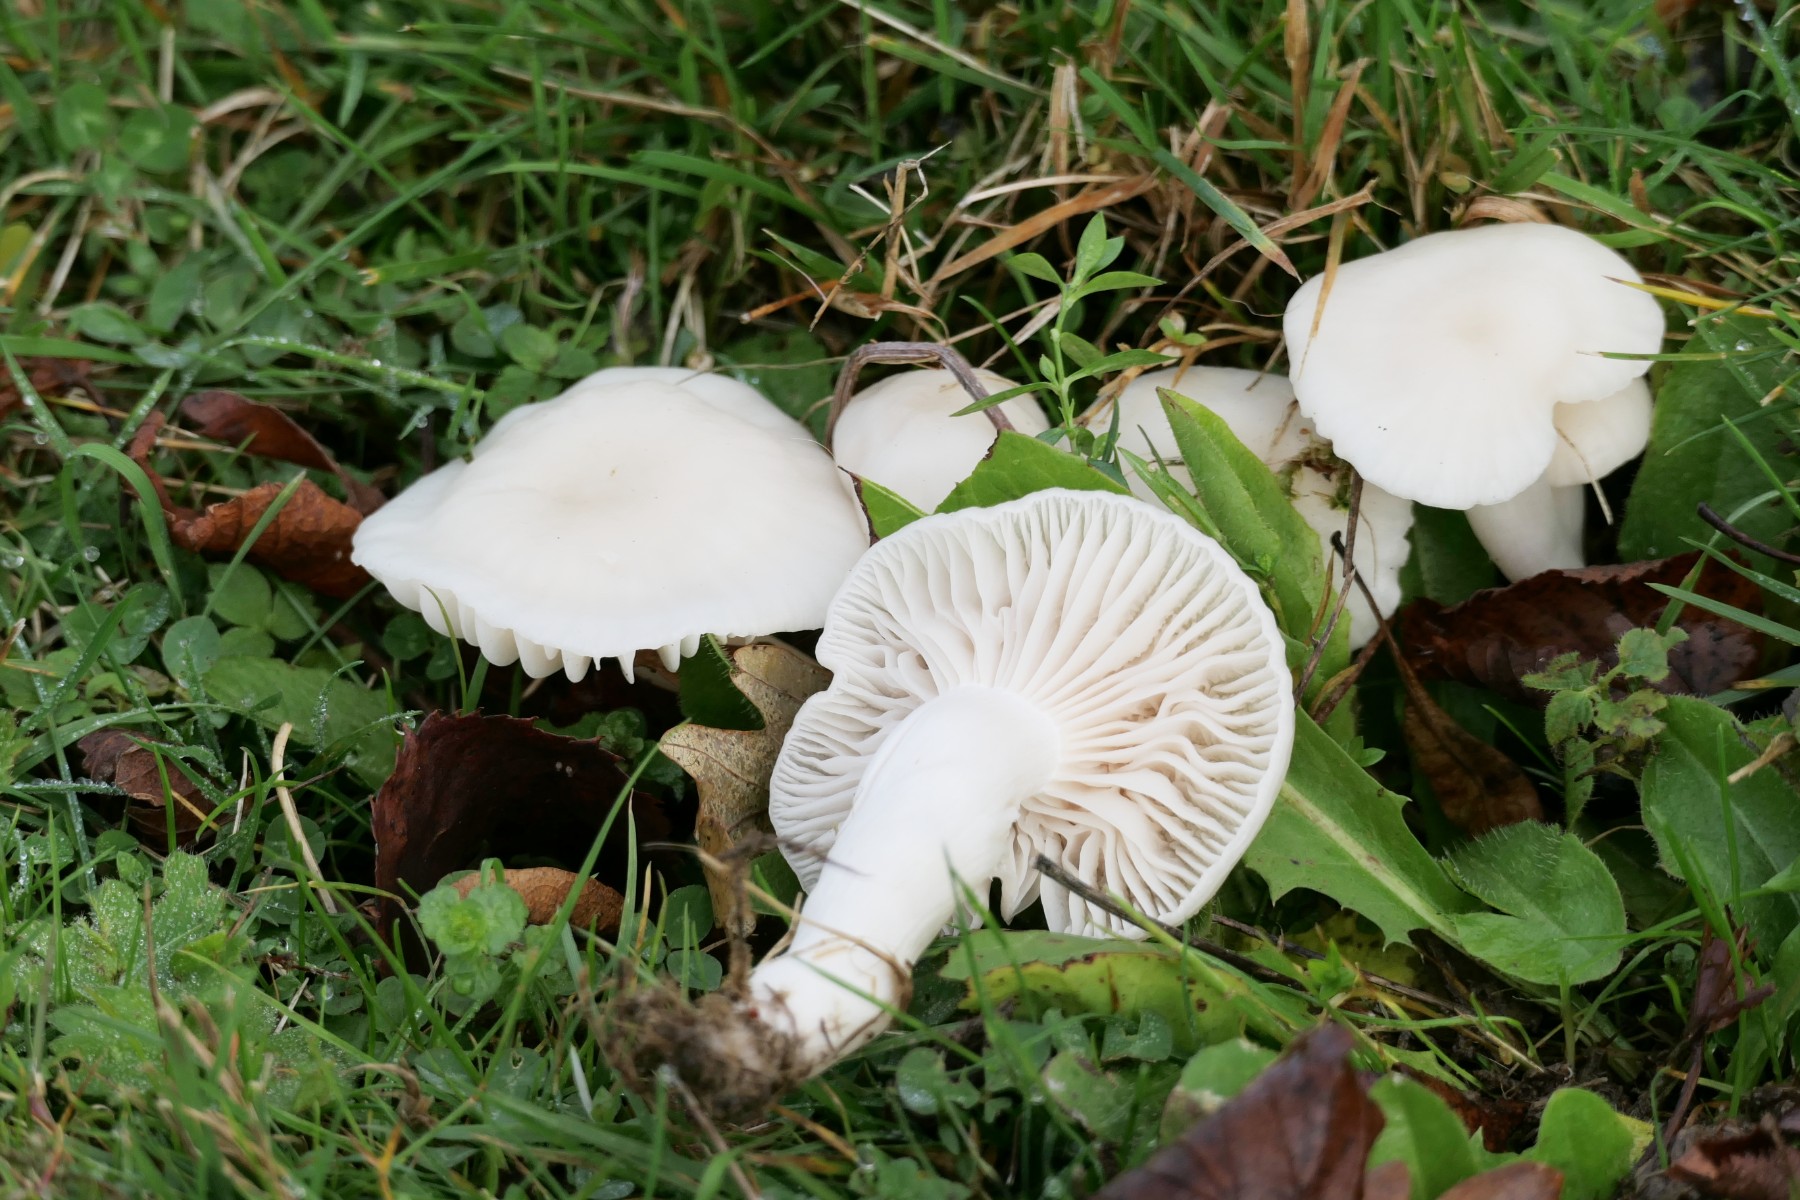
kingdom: Fungi
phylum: Basidiomycota
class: Agaricomycetes
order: Agaricales
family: Hygrophoraceae
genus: Cuphophyllus
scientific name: Cuphophyllus virgineus
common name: snehvid vokshat
